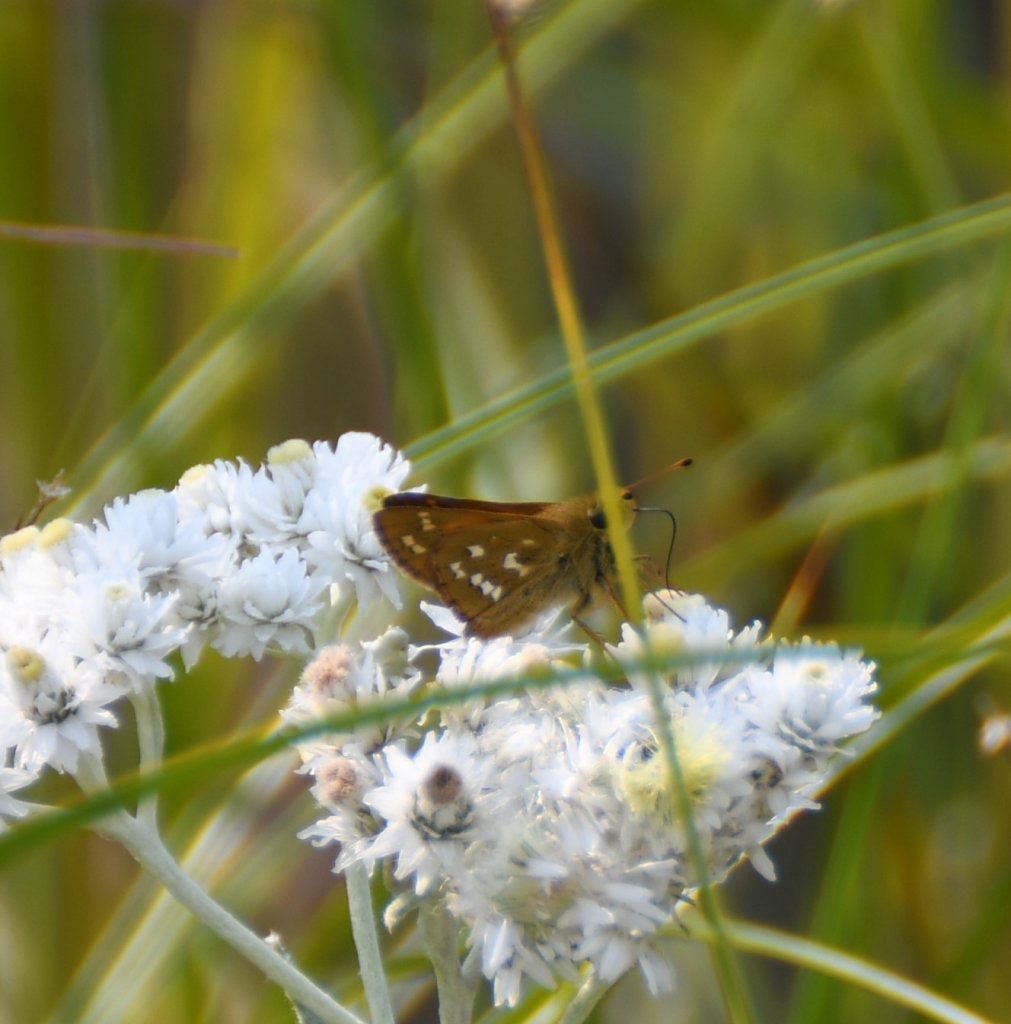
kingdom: Animalia
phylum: Arthropoda
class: Insecta
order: Lepidoptera
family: Hesperiidae
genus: Hesperia
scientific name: Hesperia comma
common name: Common Branded Skipper
